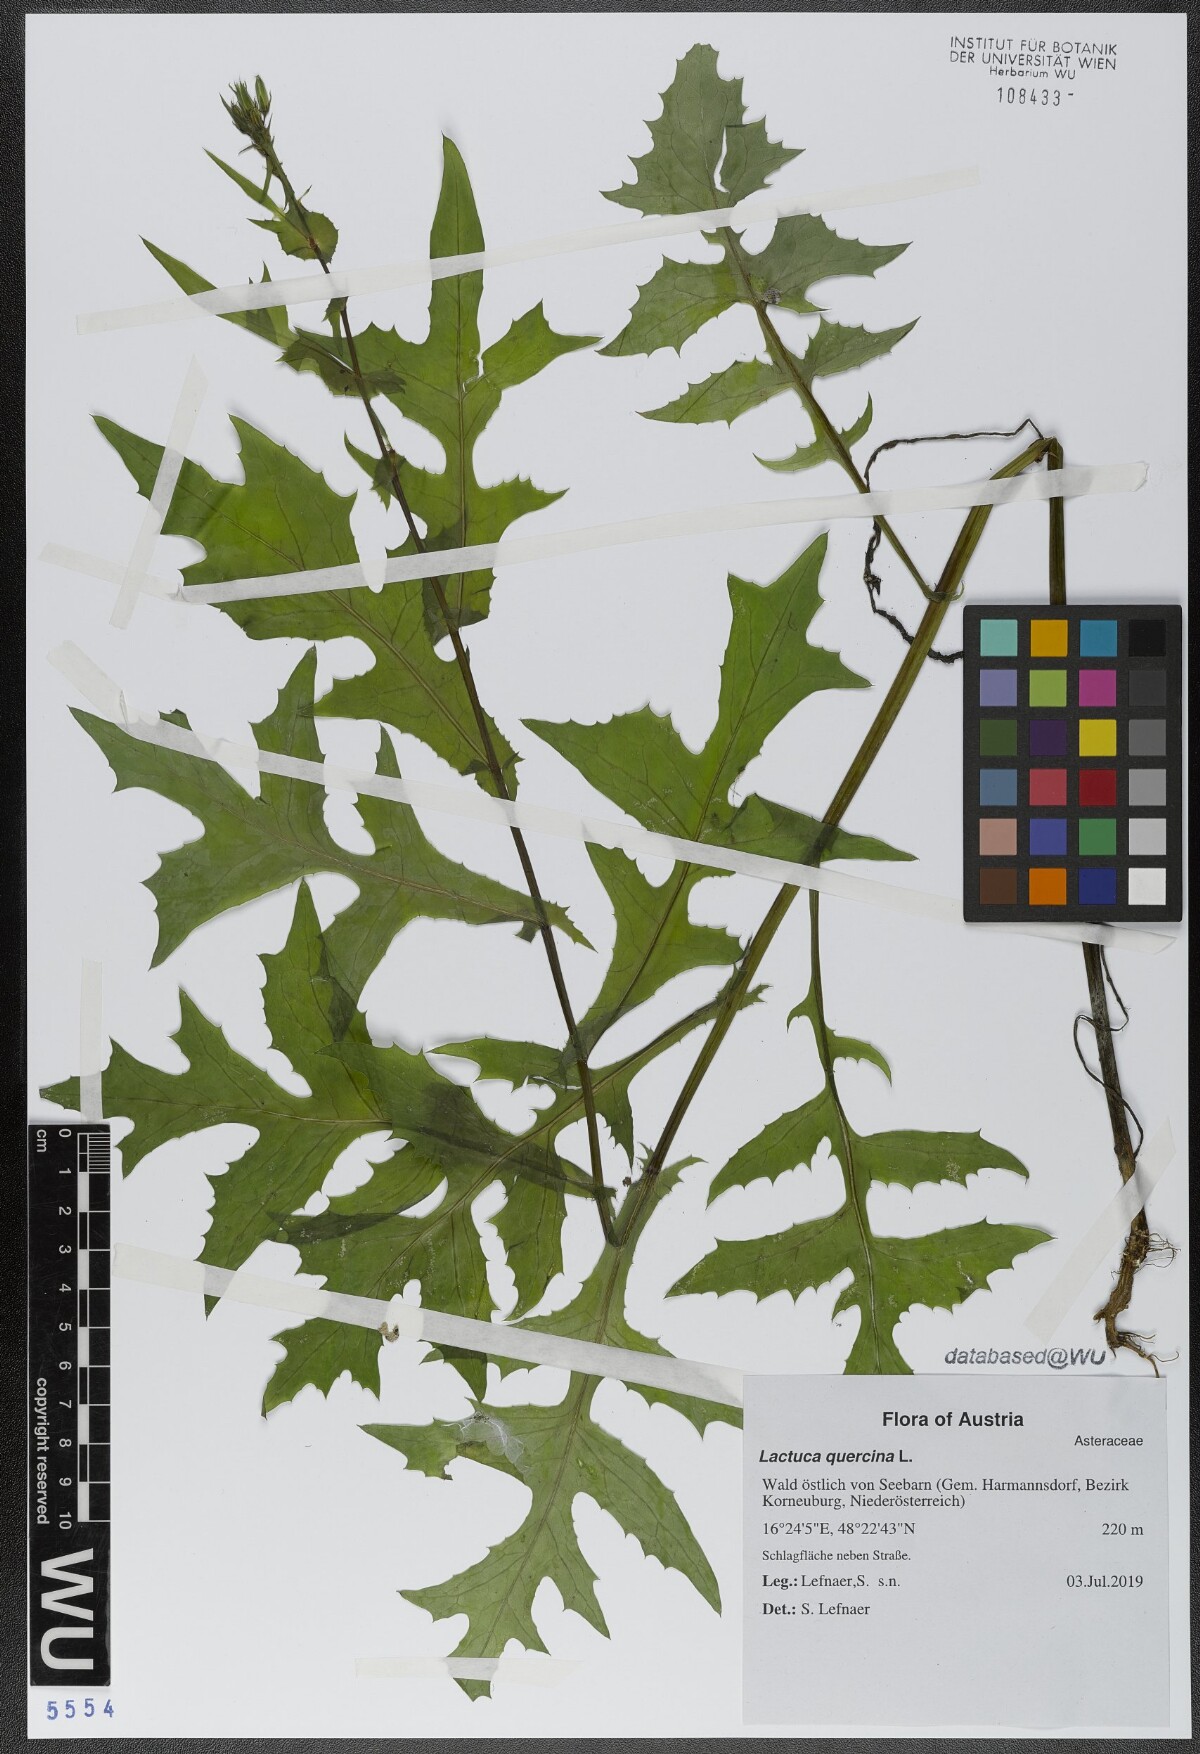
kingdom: Plantae
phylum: Tracheophyta
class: Magnoliopsida
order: Asterales
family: Asteraceae
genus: Lactuca
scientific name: Lactuca quercina
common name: Wild lettuce
